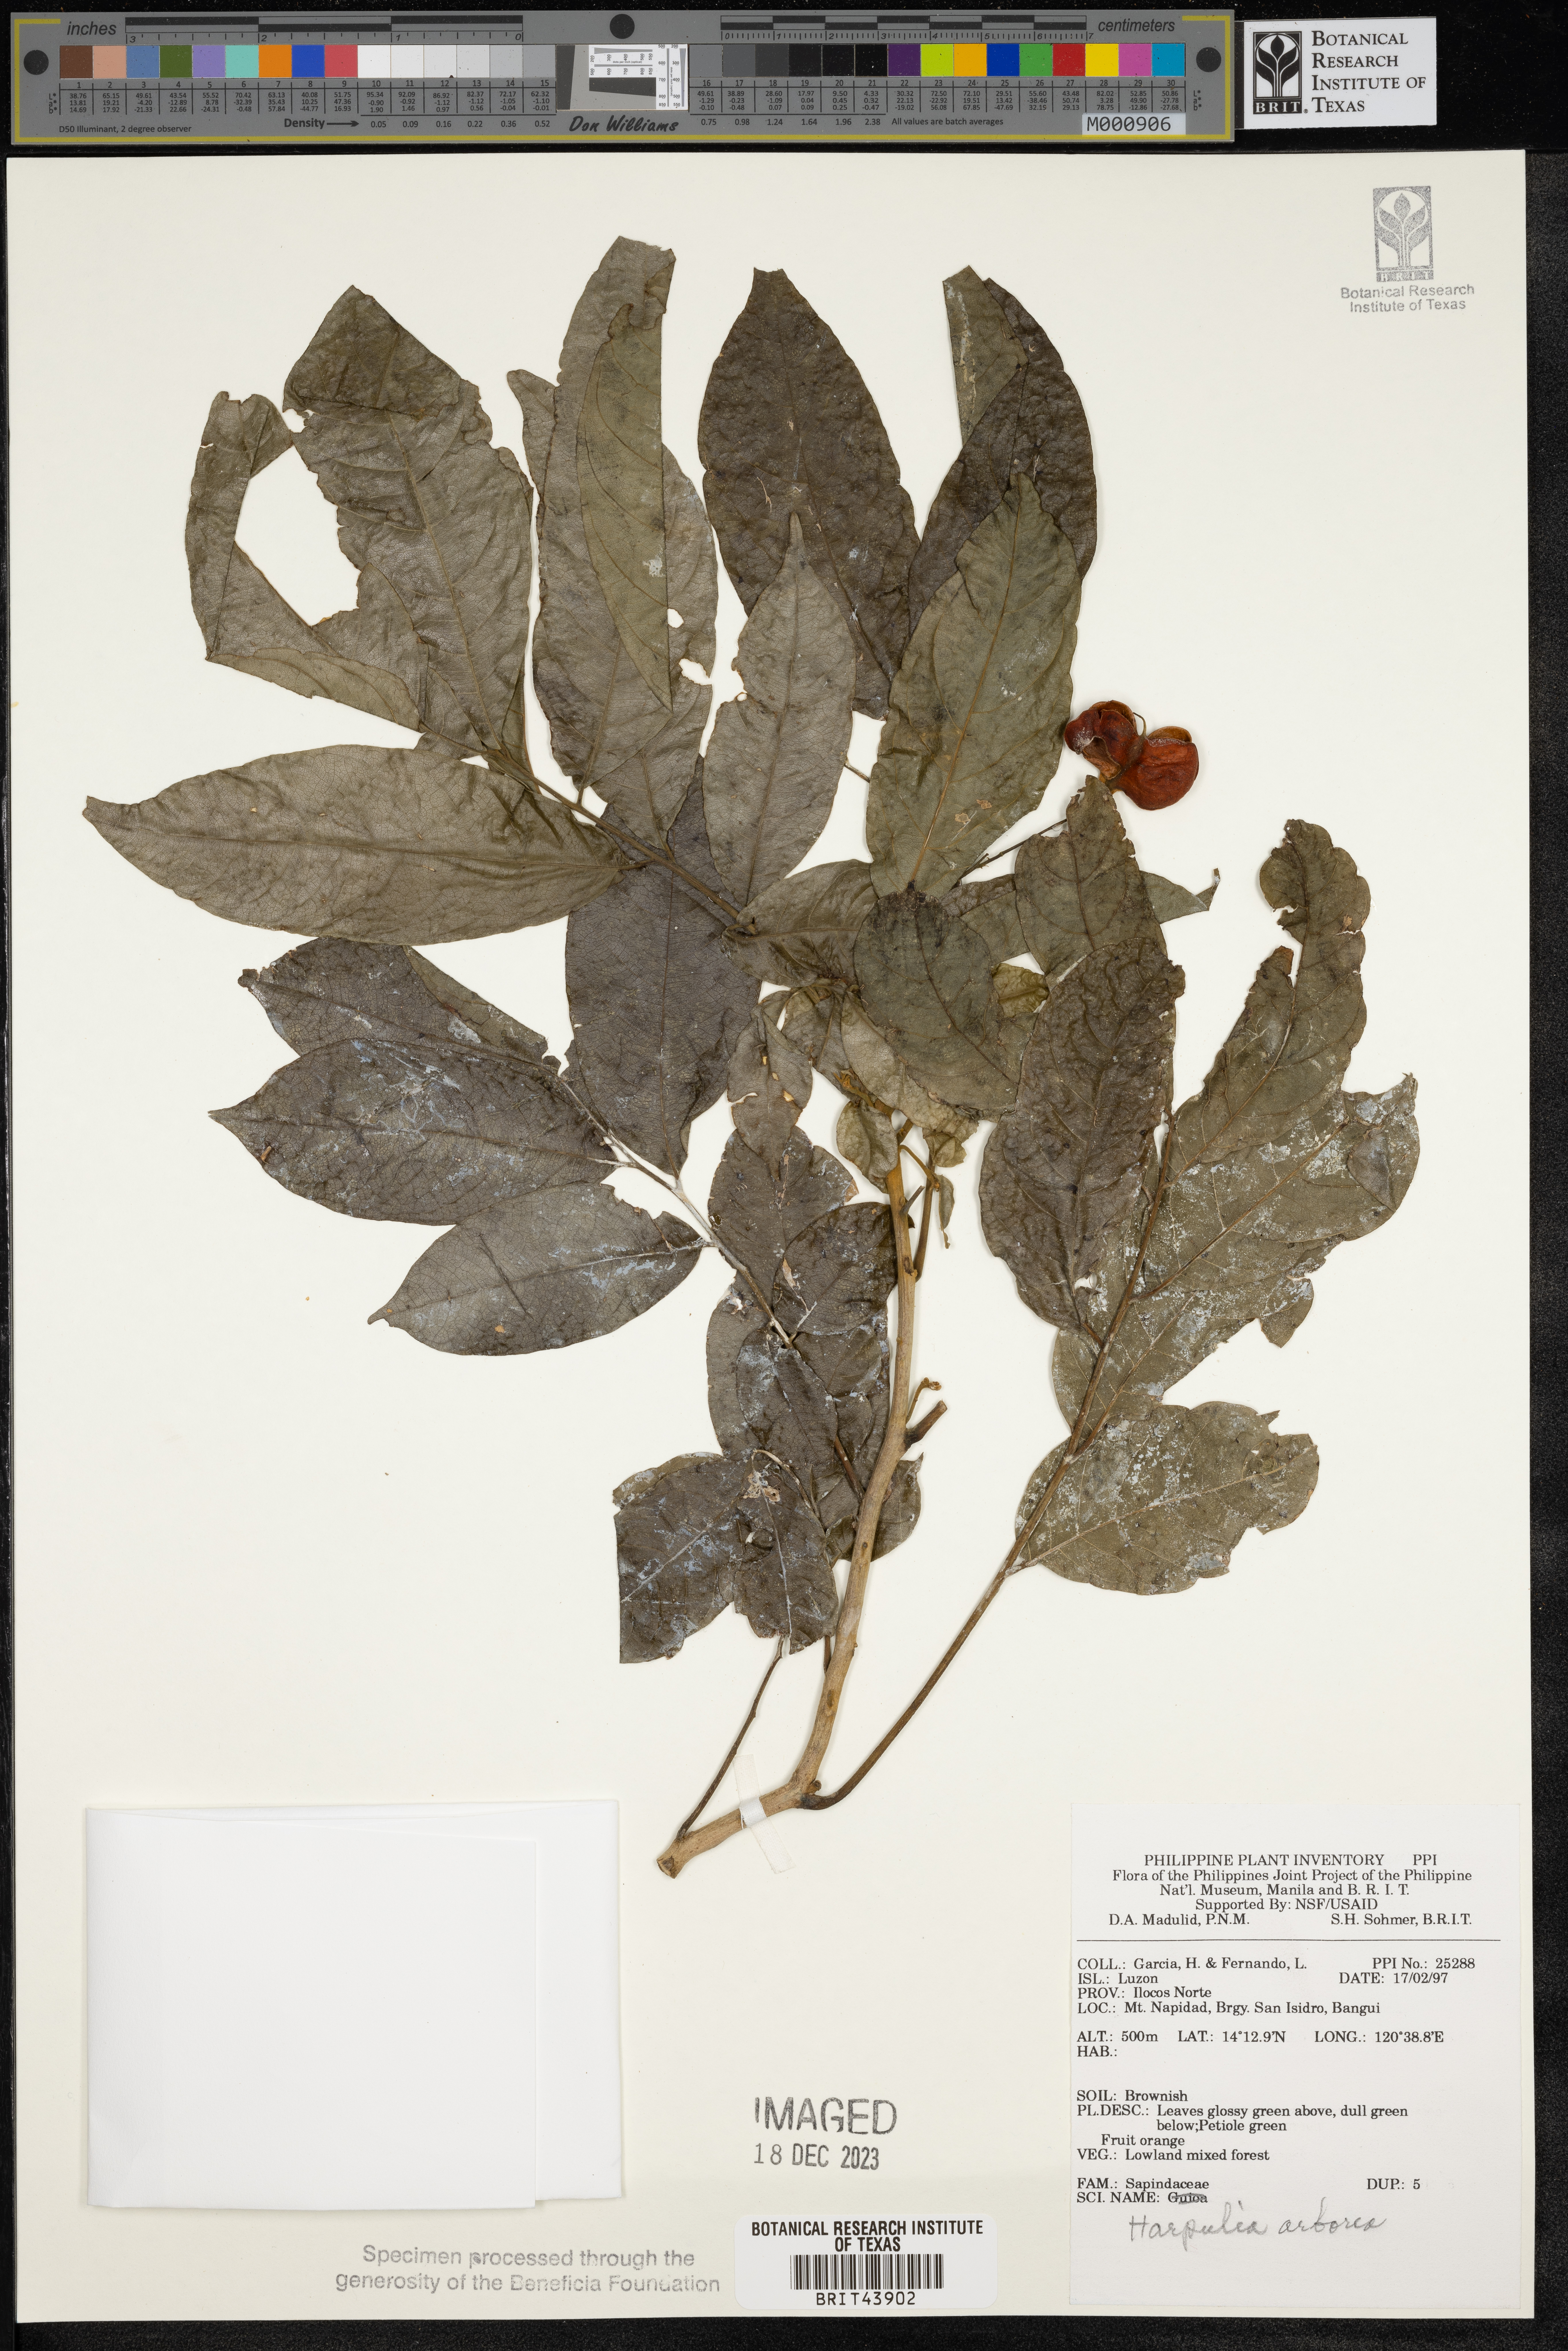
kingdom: Plantae
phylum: Tracheophyta
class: Magnoliopsida
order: Sapindales
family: Sapindaceae
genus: Harpullia
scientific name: Harpullia arborea
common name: Tulip-wood tree
